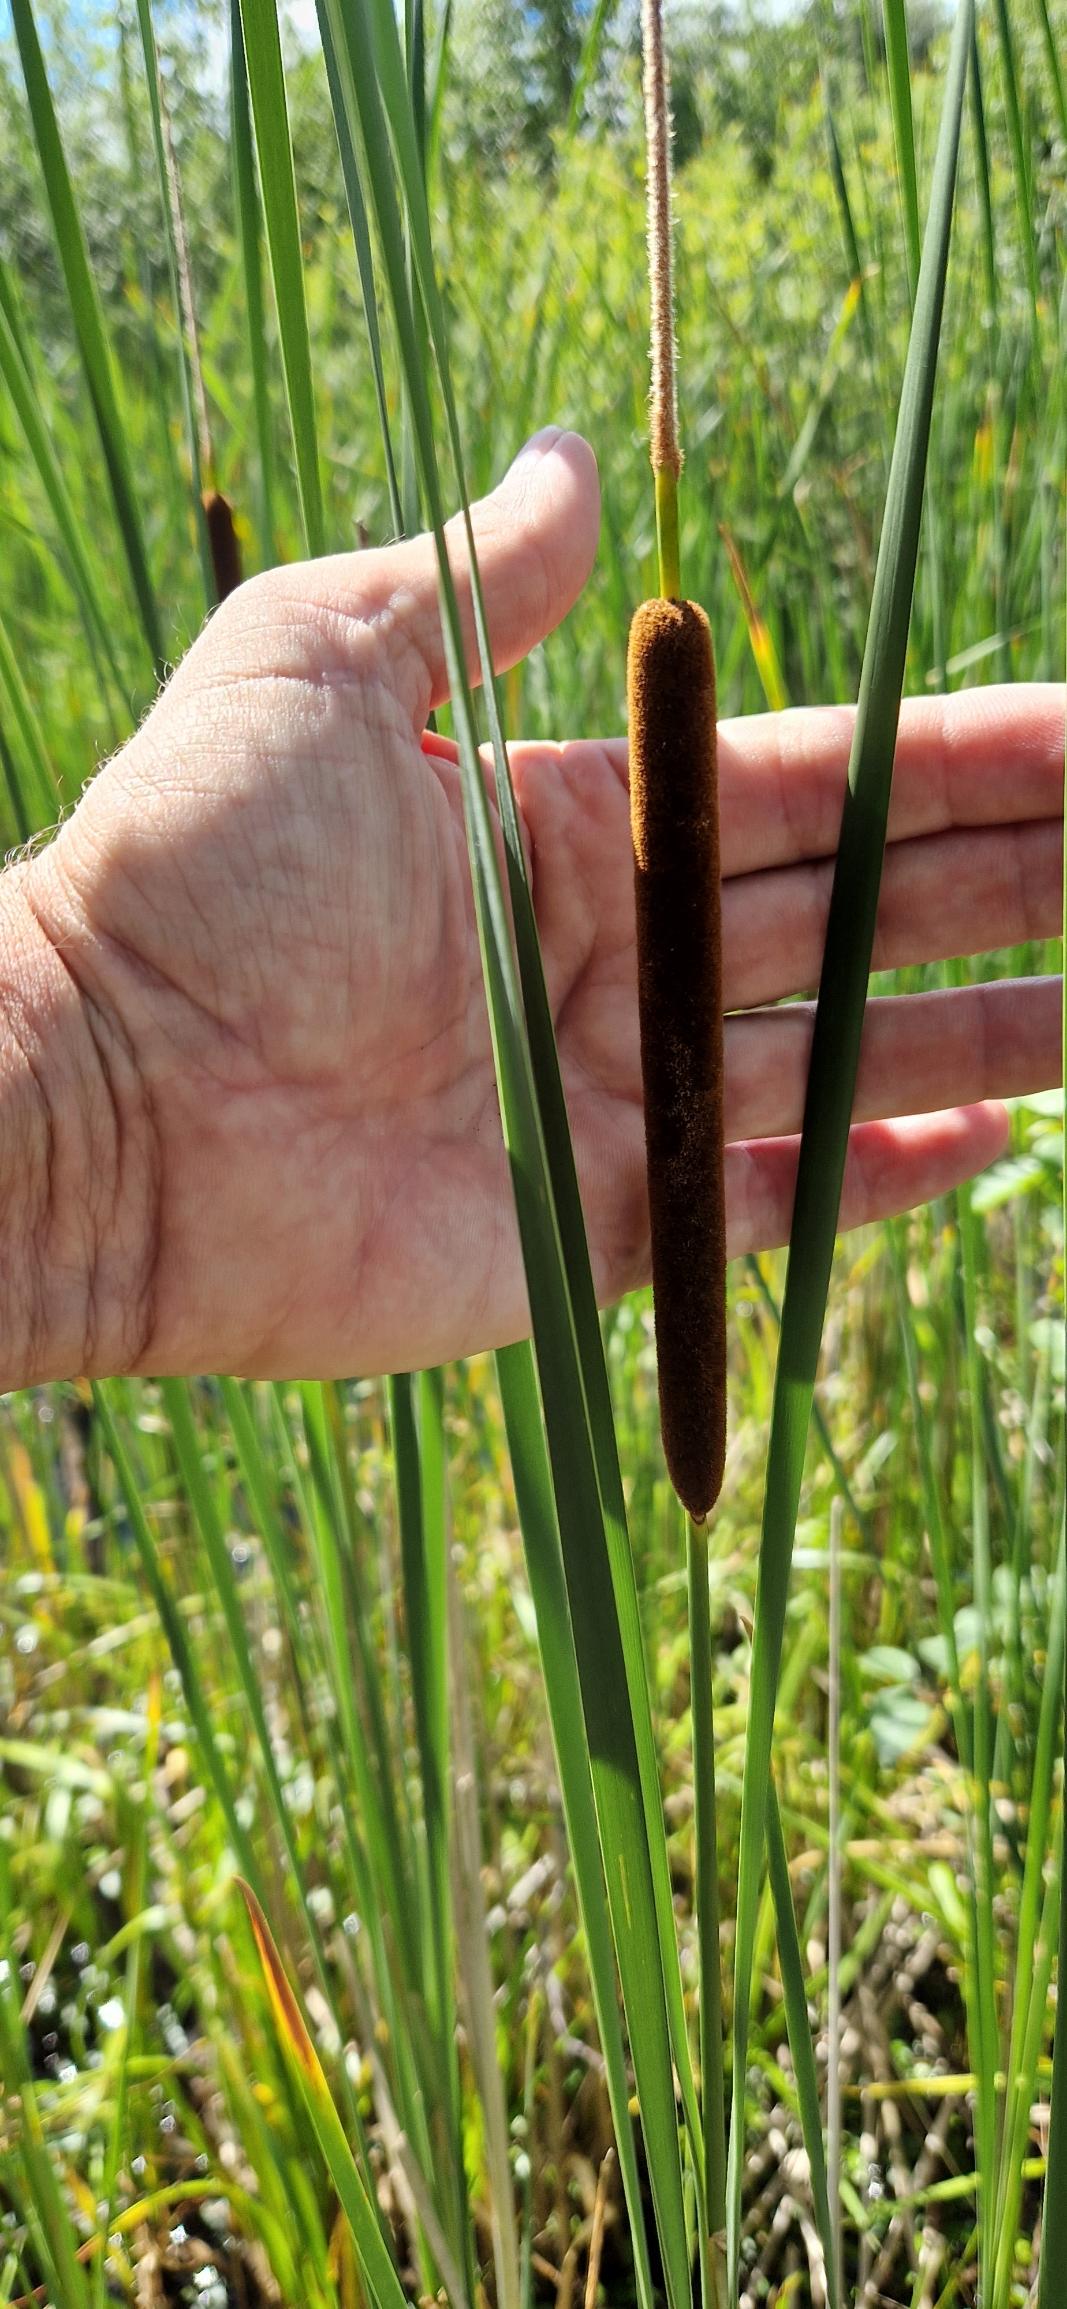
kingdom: Plantae
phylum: Tracheophyta
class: Liliopsida
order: Poales
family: Typhaceae
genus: Typha
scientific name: Typha angustifolia
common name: Smalbladet dunhammer
